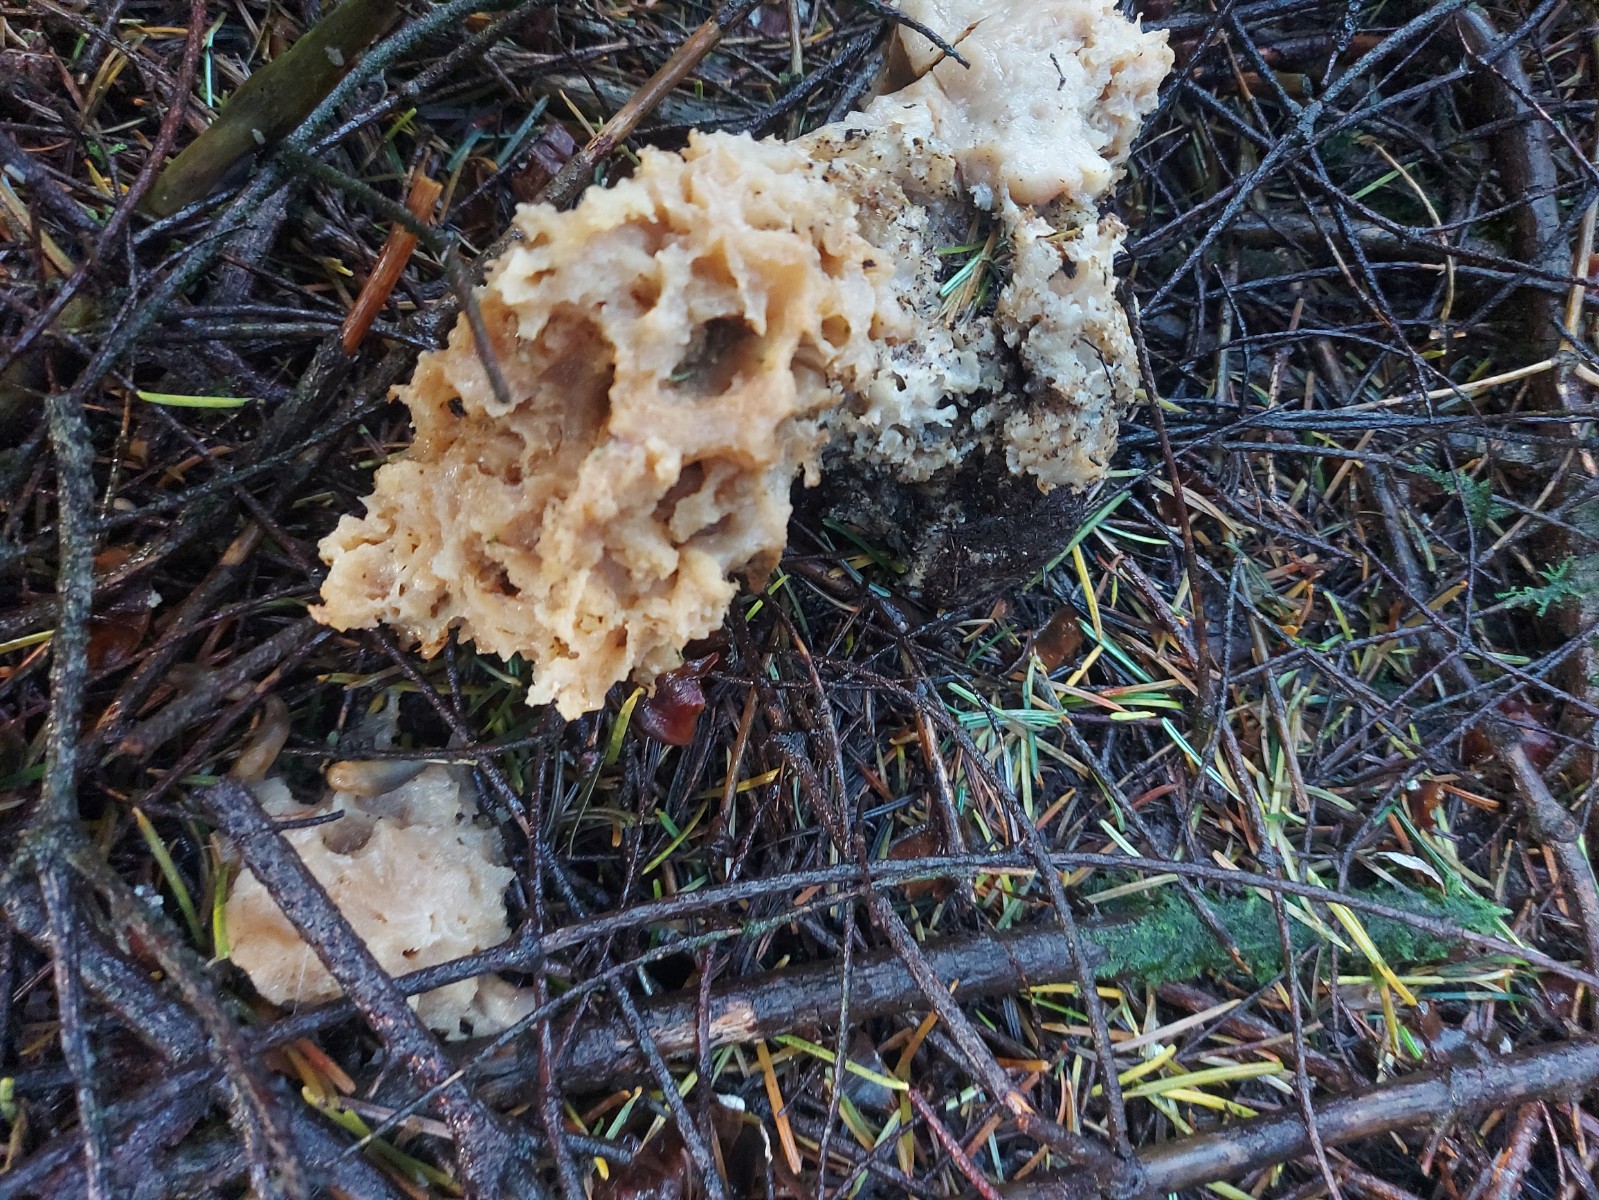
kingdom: Fungi
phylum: Basidiomycota
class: Agaricomycetes
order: Polyporales
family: Sparassidaceae
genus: Sparassis
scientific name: Sparassis crispa
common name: kruset blomkålssvamp
